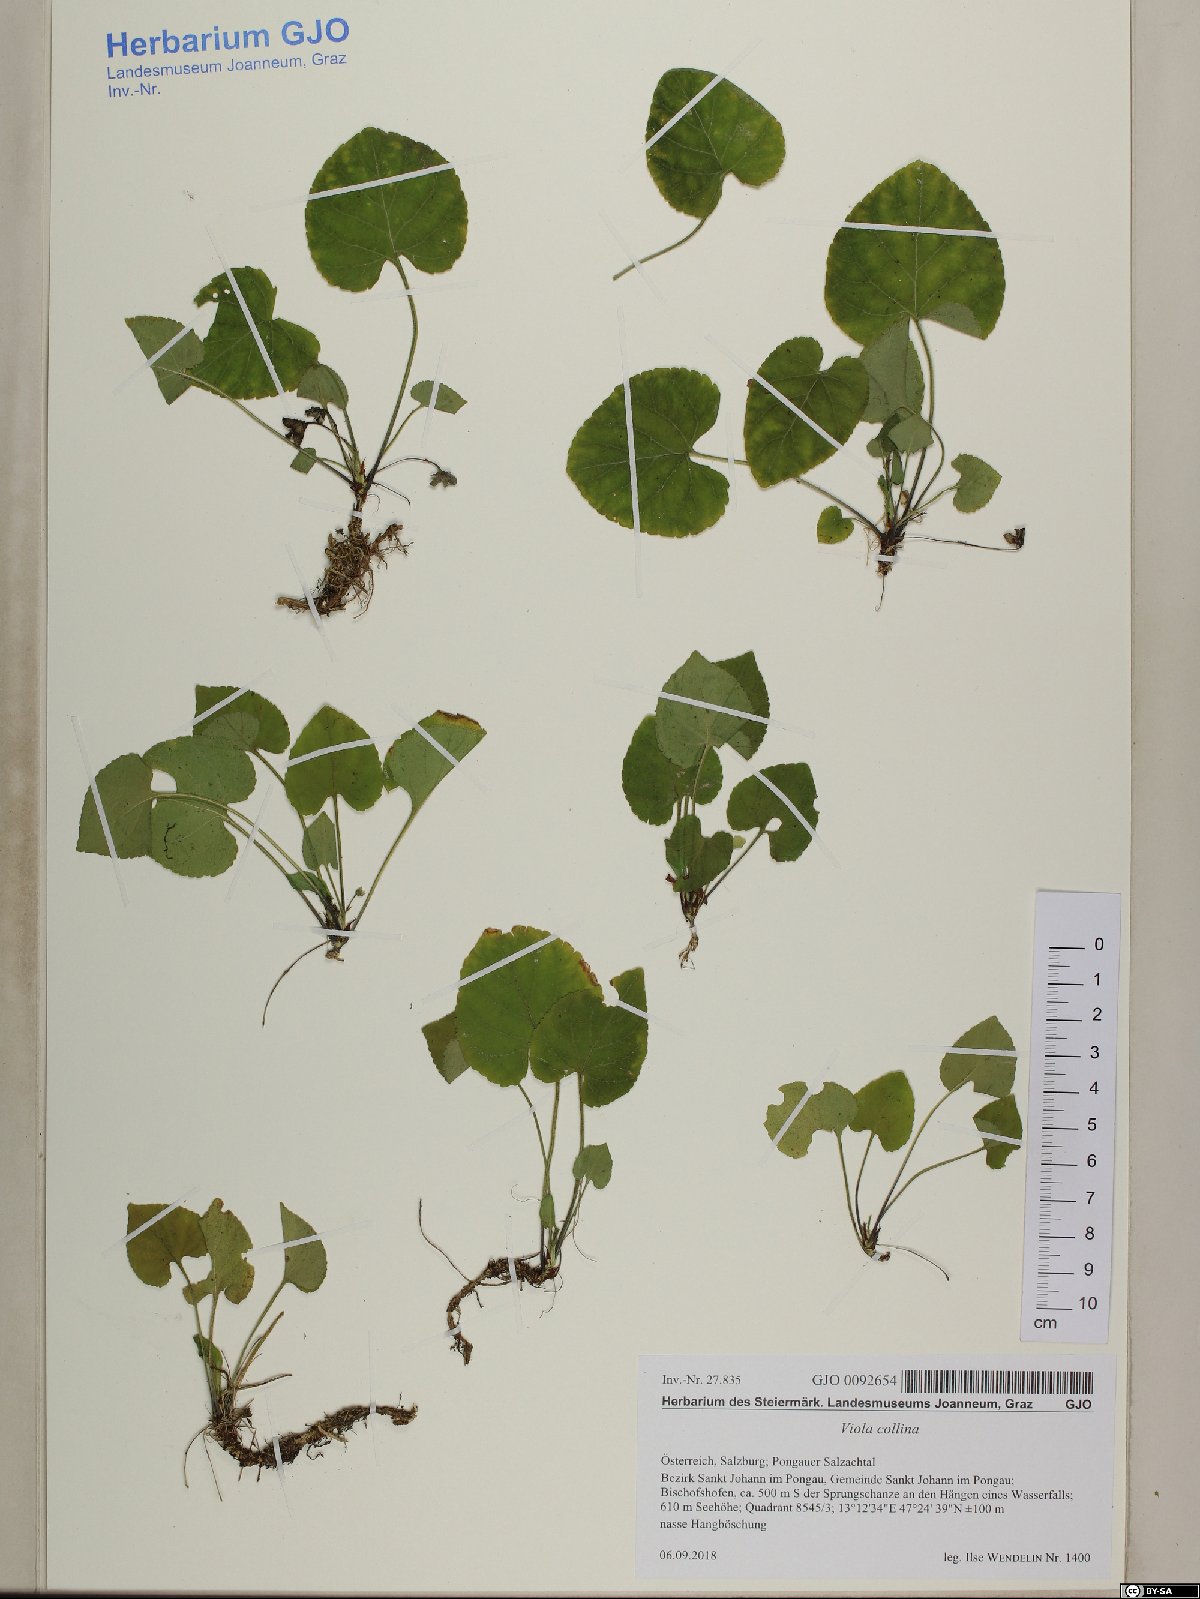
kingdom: Plantae
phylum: Tracheophyta
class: Magnoliopsida
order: Malpighiales
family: Violaceae
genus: Viola
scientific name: Viola collina
